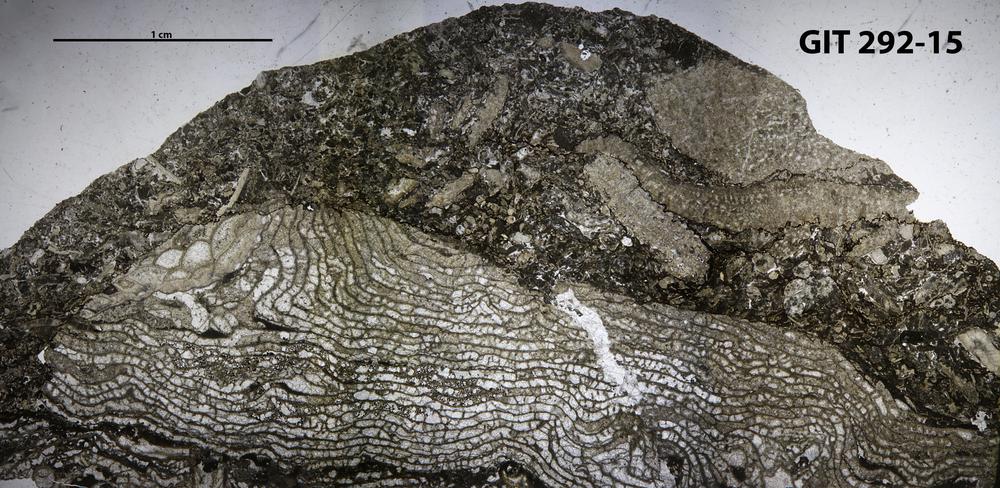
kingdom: Animalia
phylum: Porifera
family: Stromatoporellidae
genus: Simplexodictyon
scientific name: Simplexodictyon
